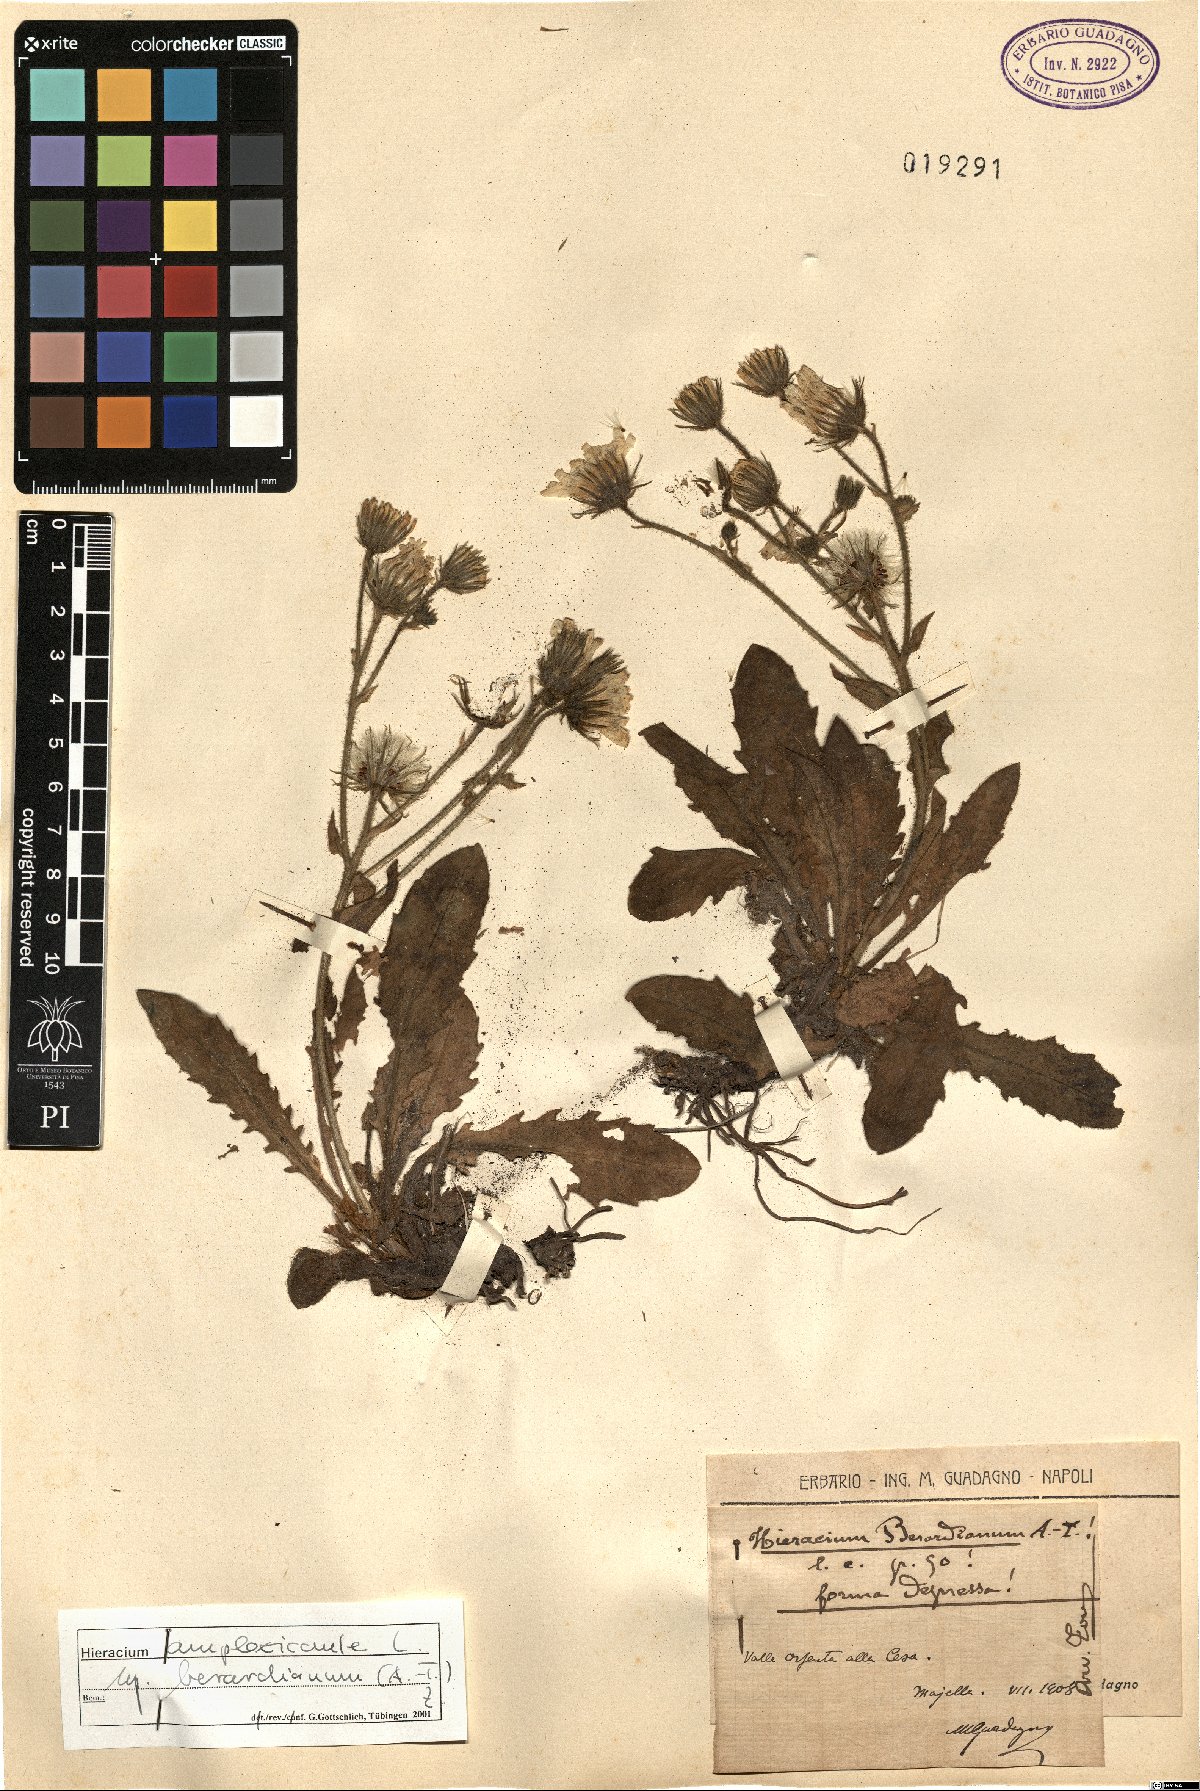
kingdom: Plantae
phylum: Tracheophyta
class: Magnoliopsida
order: Asterales
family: Asteraceae
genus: Hieracium
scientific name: Hieracium amplexicaule
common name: Sticky hawkweed
